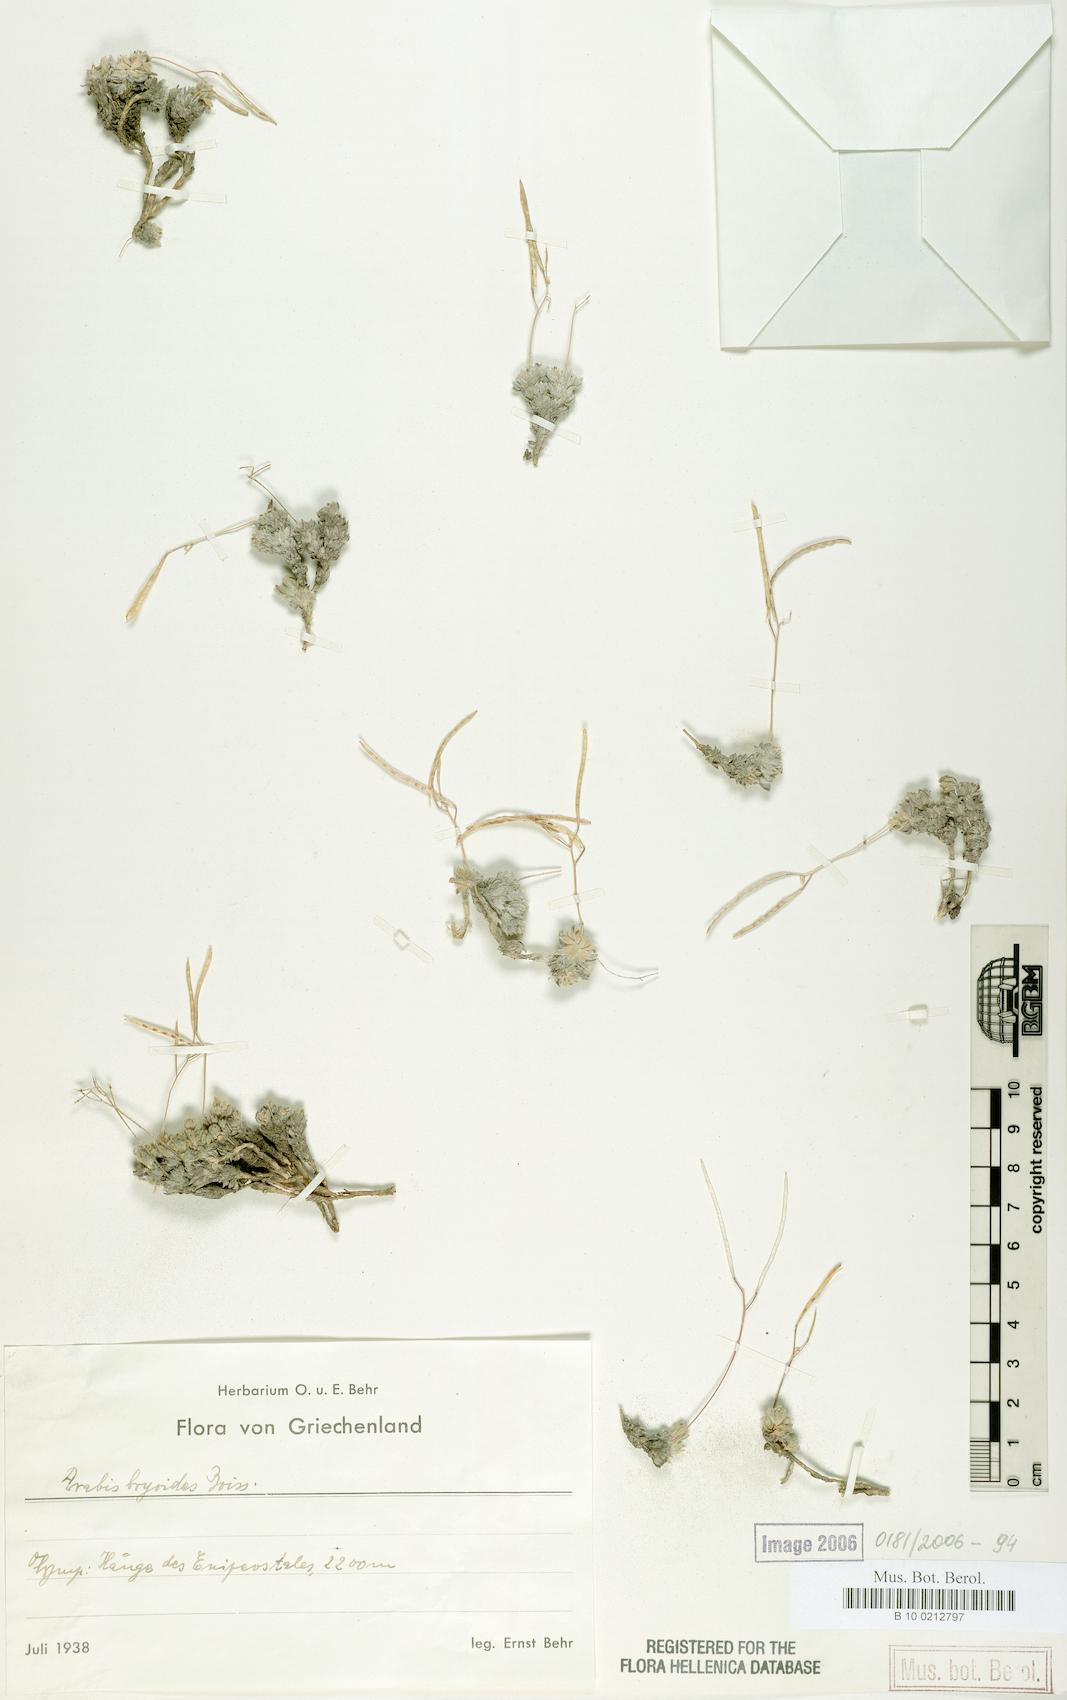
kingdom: Plantae
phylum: Tracheophyta
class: Magnoliopsida
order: Brassicales
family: Brassicaceae
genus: Arabis
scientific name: Arabis bryoides
